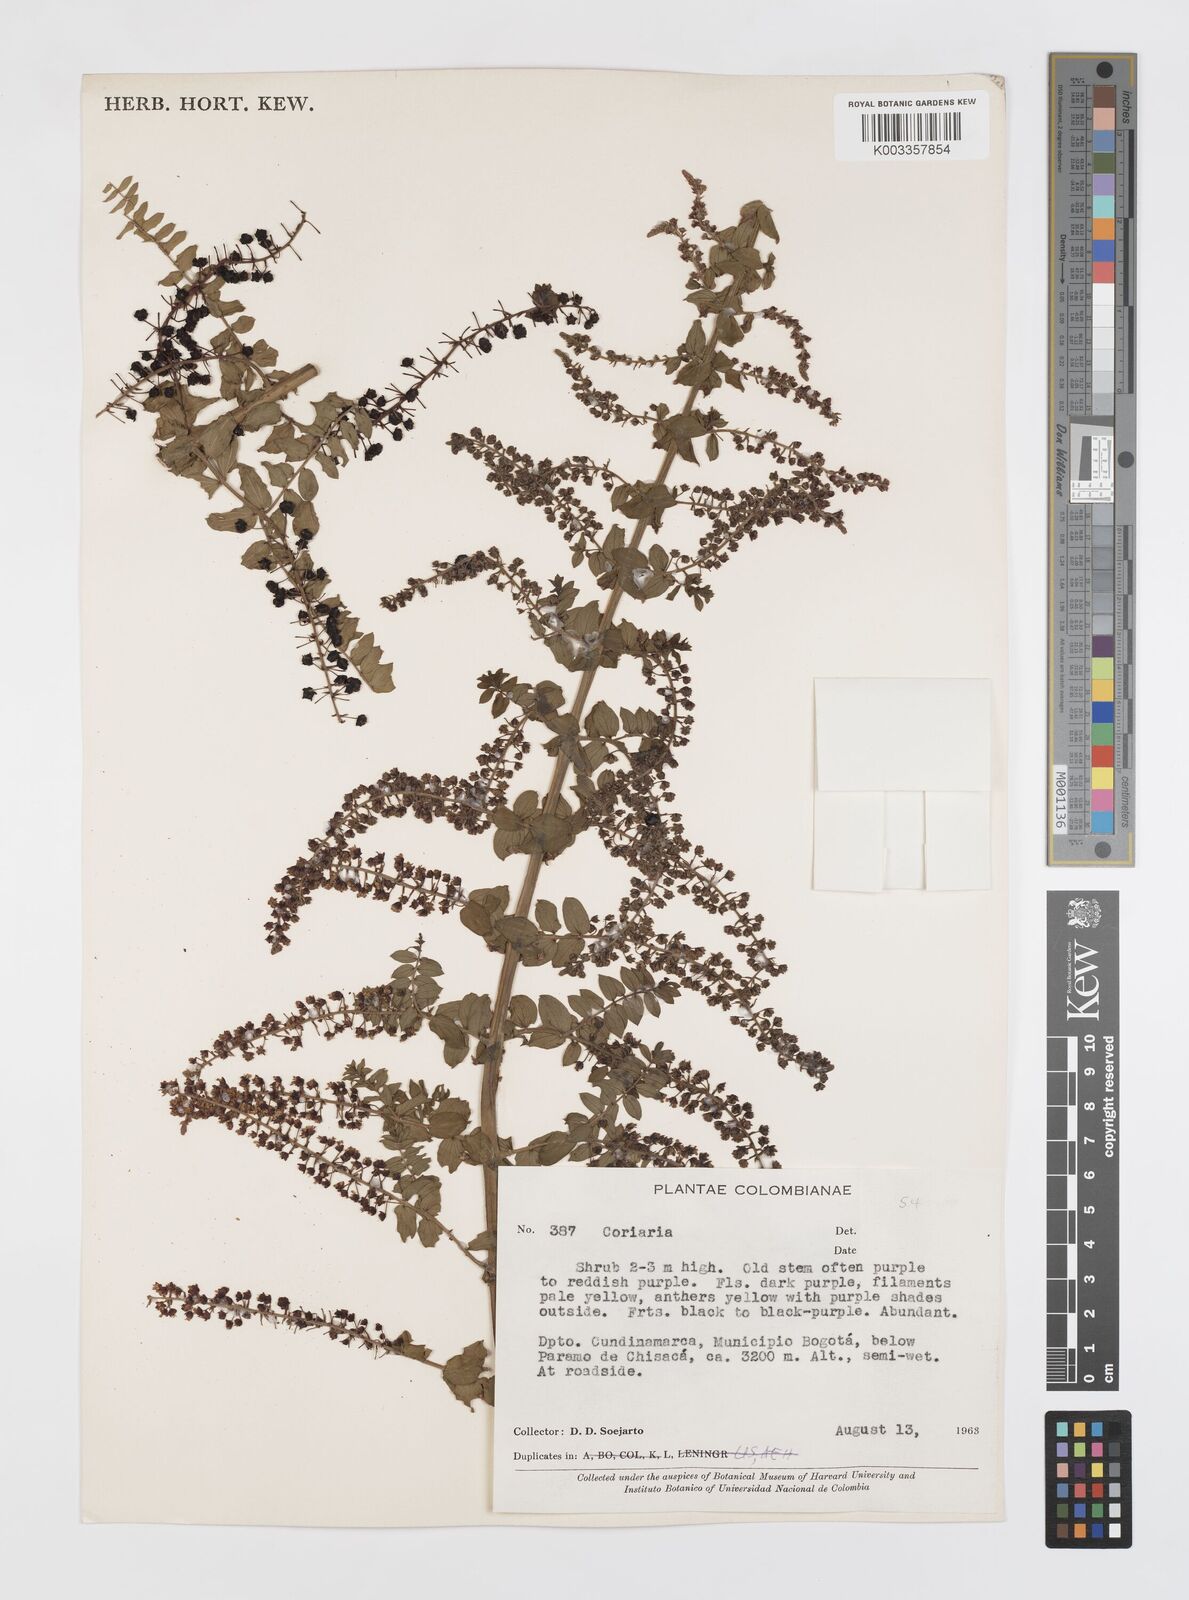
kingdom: Plantae
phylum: Tracheophyta
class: Magnoliopsida
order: Cucurbitales
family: Coriariaceae
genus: Coriaria
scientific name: Coriaria microphylla
